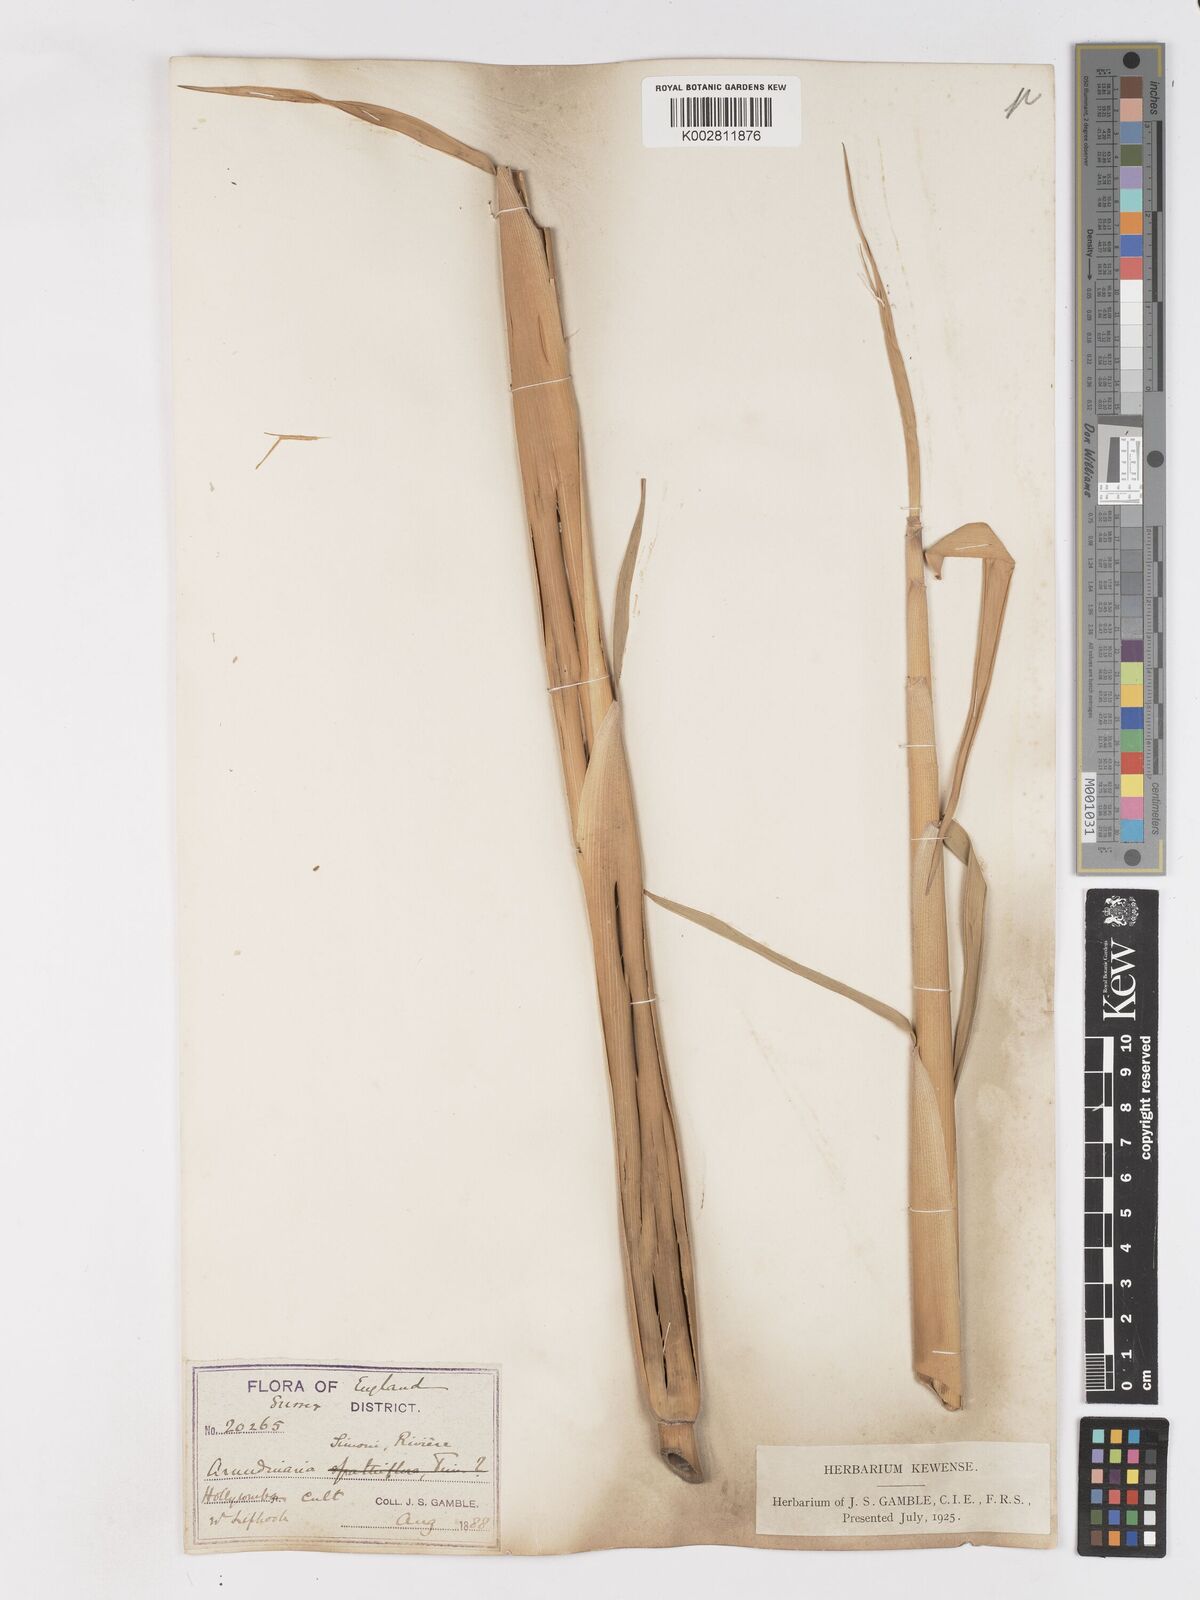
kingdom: Plantae
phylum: Tracheophyta
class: Liliopsida
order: Poales
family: Poaceae
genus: Pleioblastus
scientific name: Pleioblastus simonii
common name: Simon bamboo
